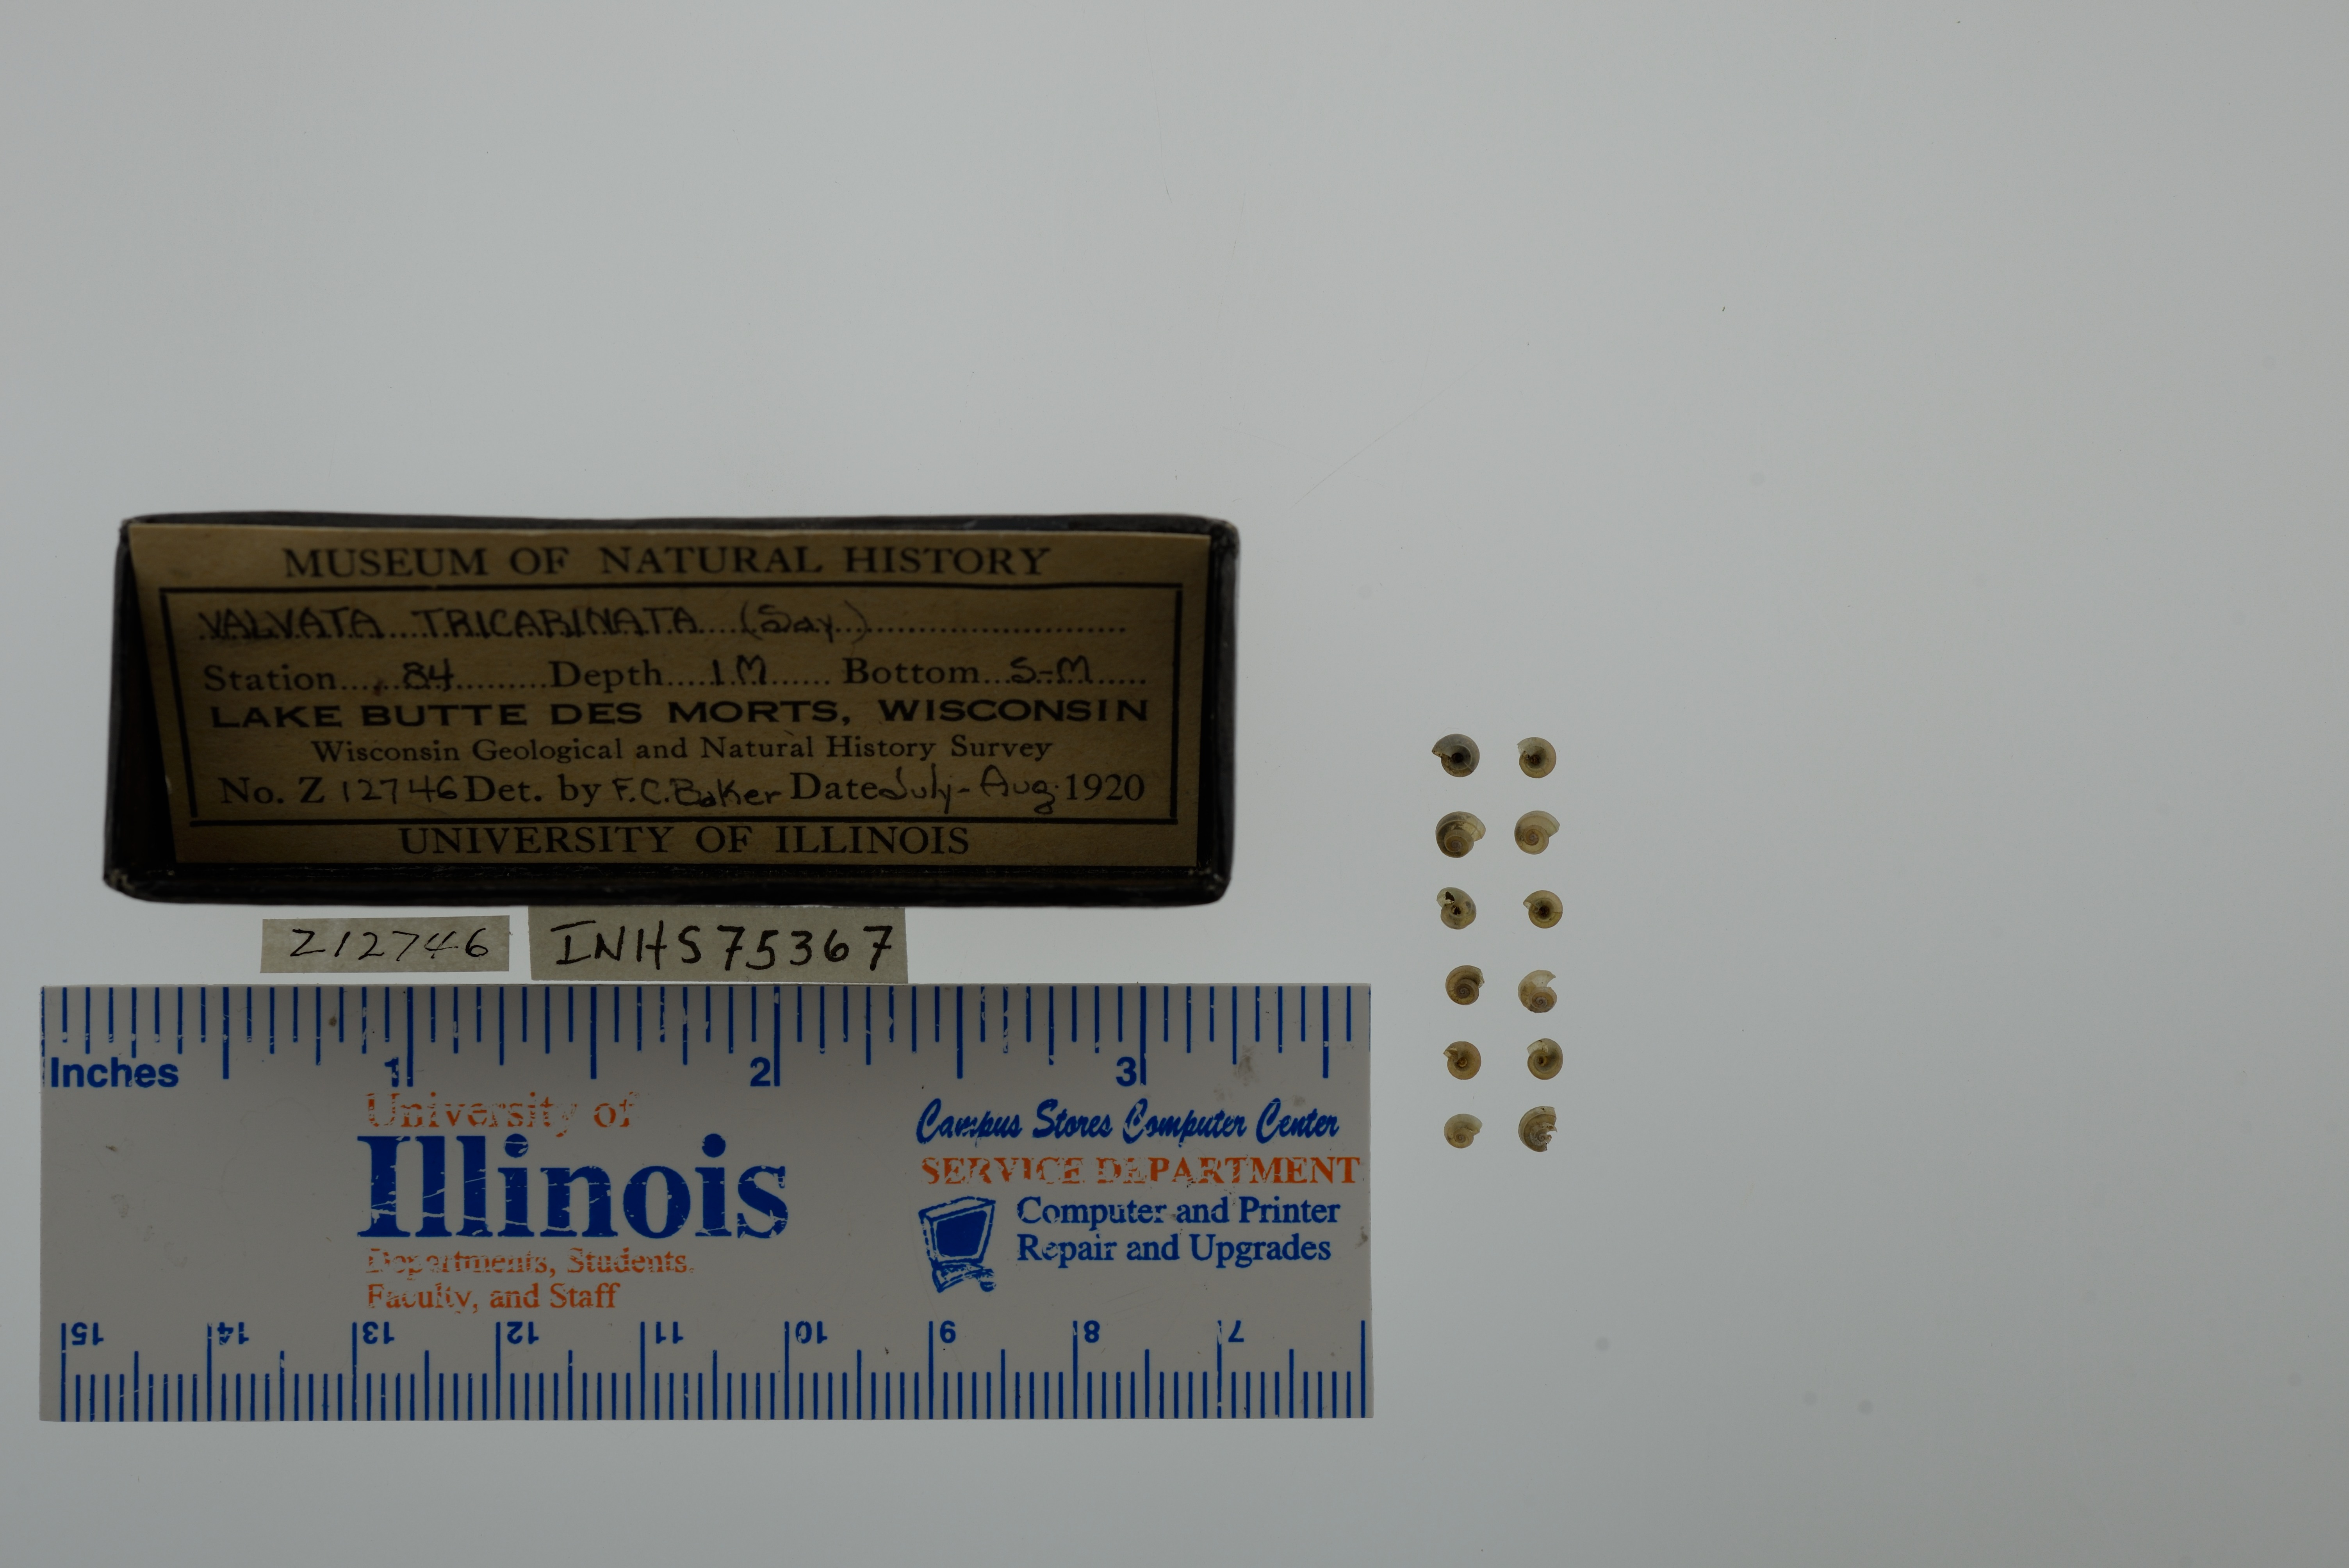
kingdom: Animalia
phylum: Mollusca
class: Gastropoda
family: Valvatidae
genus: Valvata
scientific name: Valvata tricarinata
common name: Three-ridge valvata
